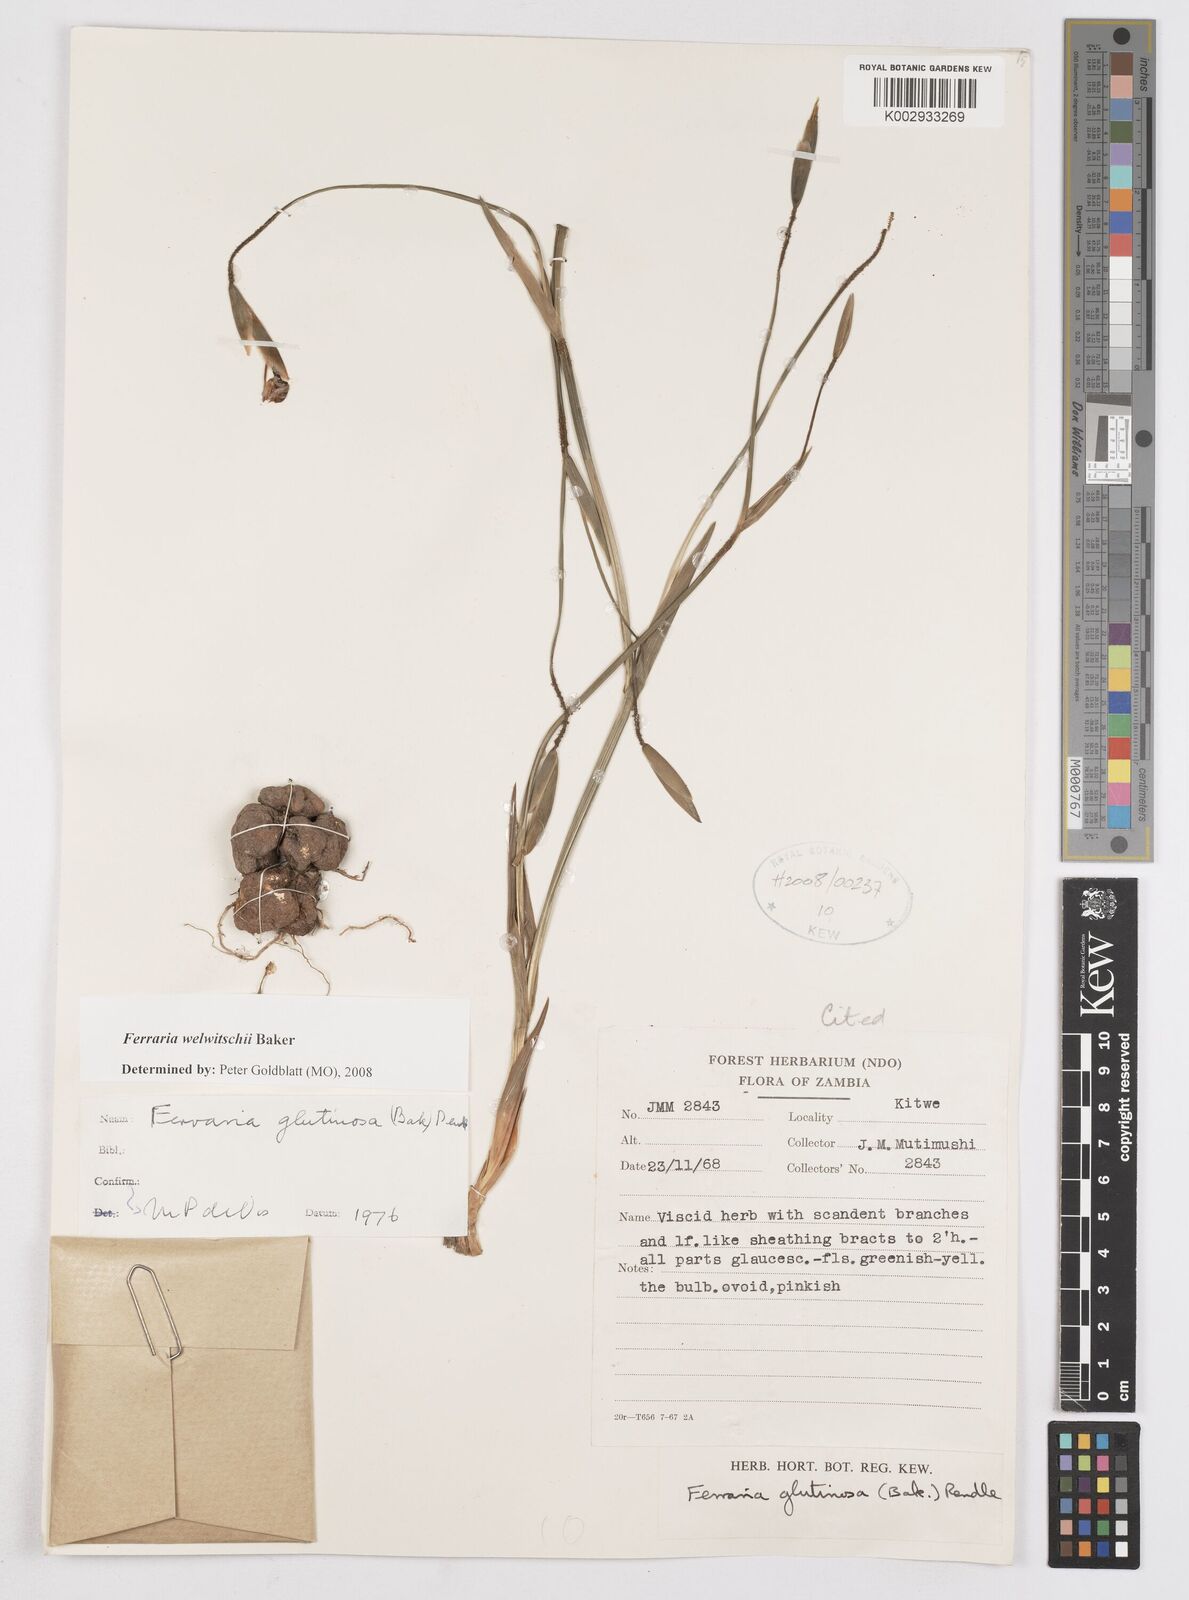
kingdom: Plantae
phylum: Tracheophyta
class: Liliopsida
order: Asparagales
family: Iridaceae
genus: Ferraria
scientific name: Ferraria welwitschii
